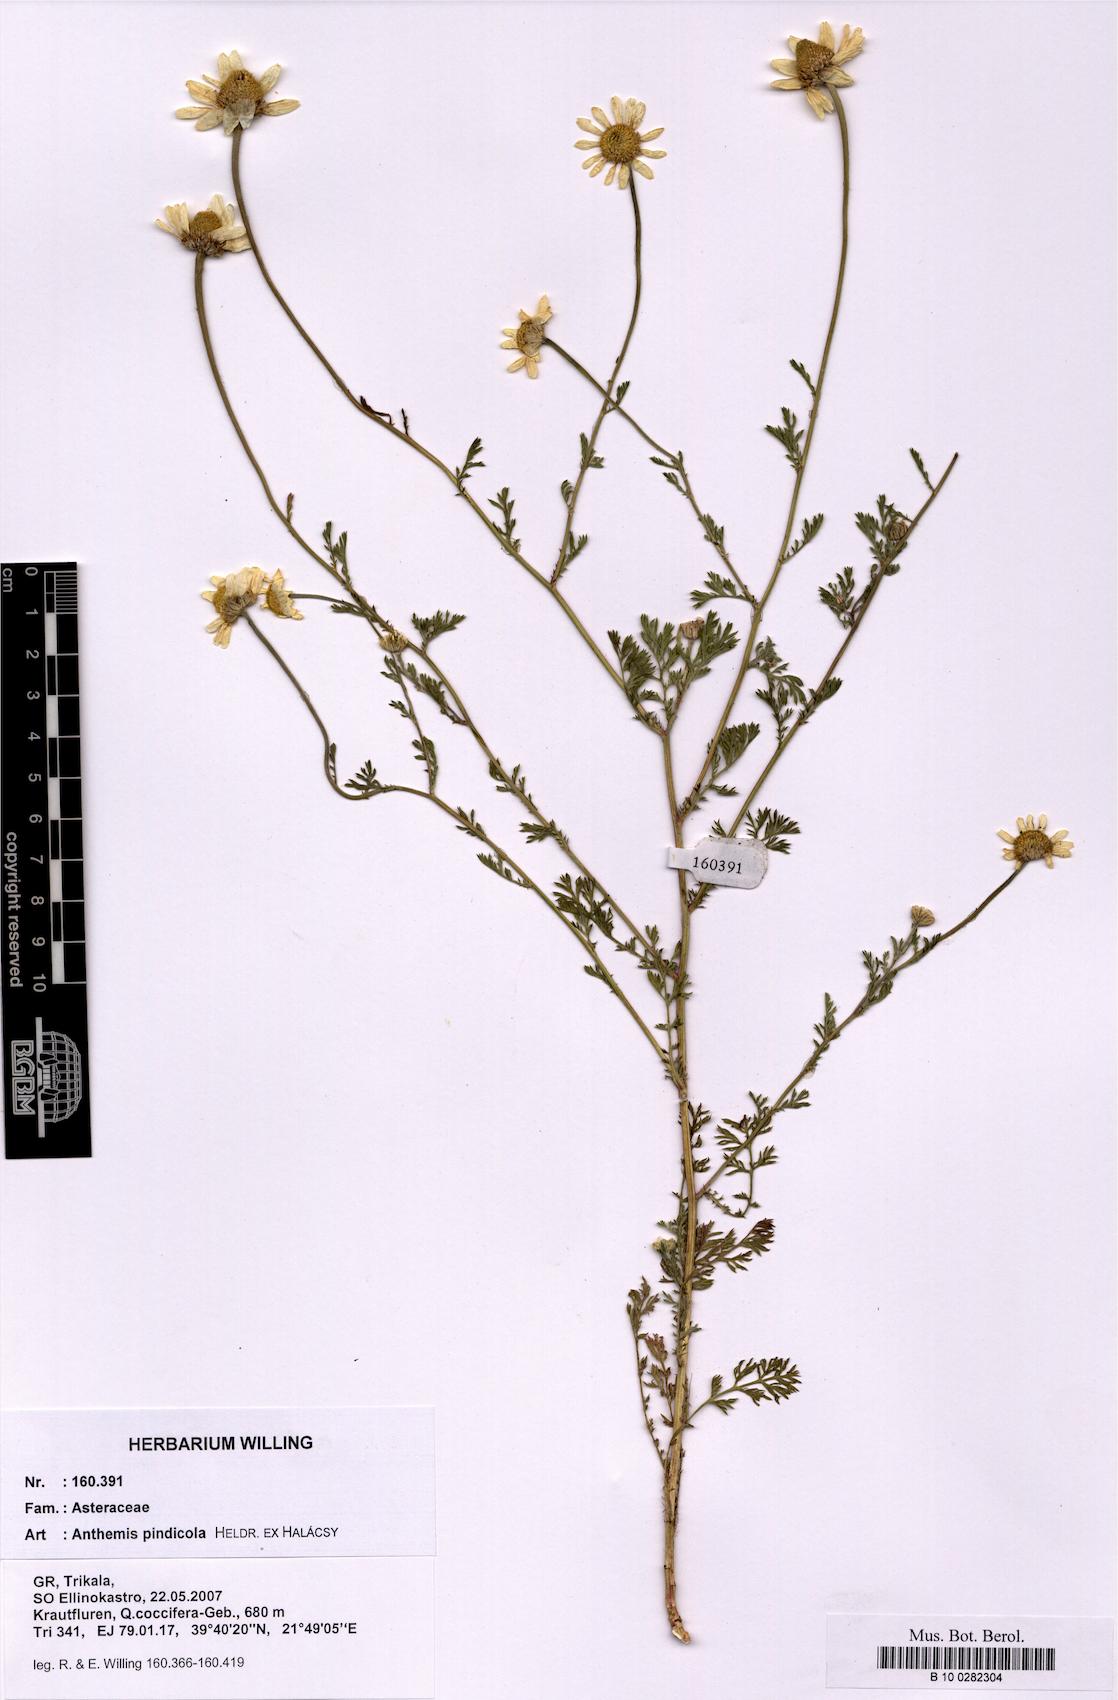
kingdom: Plantae
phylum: Tracheophyta
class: Magnoliopsida
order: Asterales
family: Asteraceae
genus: Anthemis
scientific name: Anthemis pindicola
